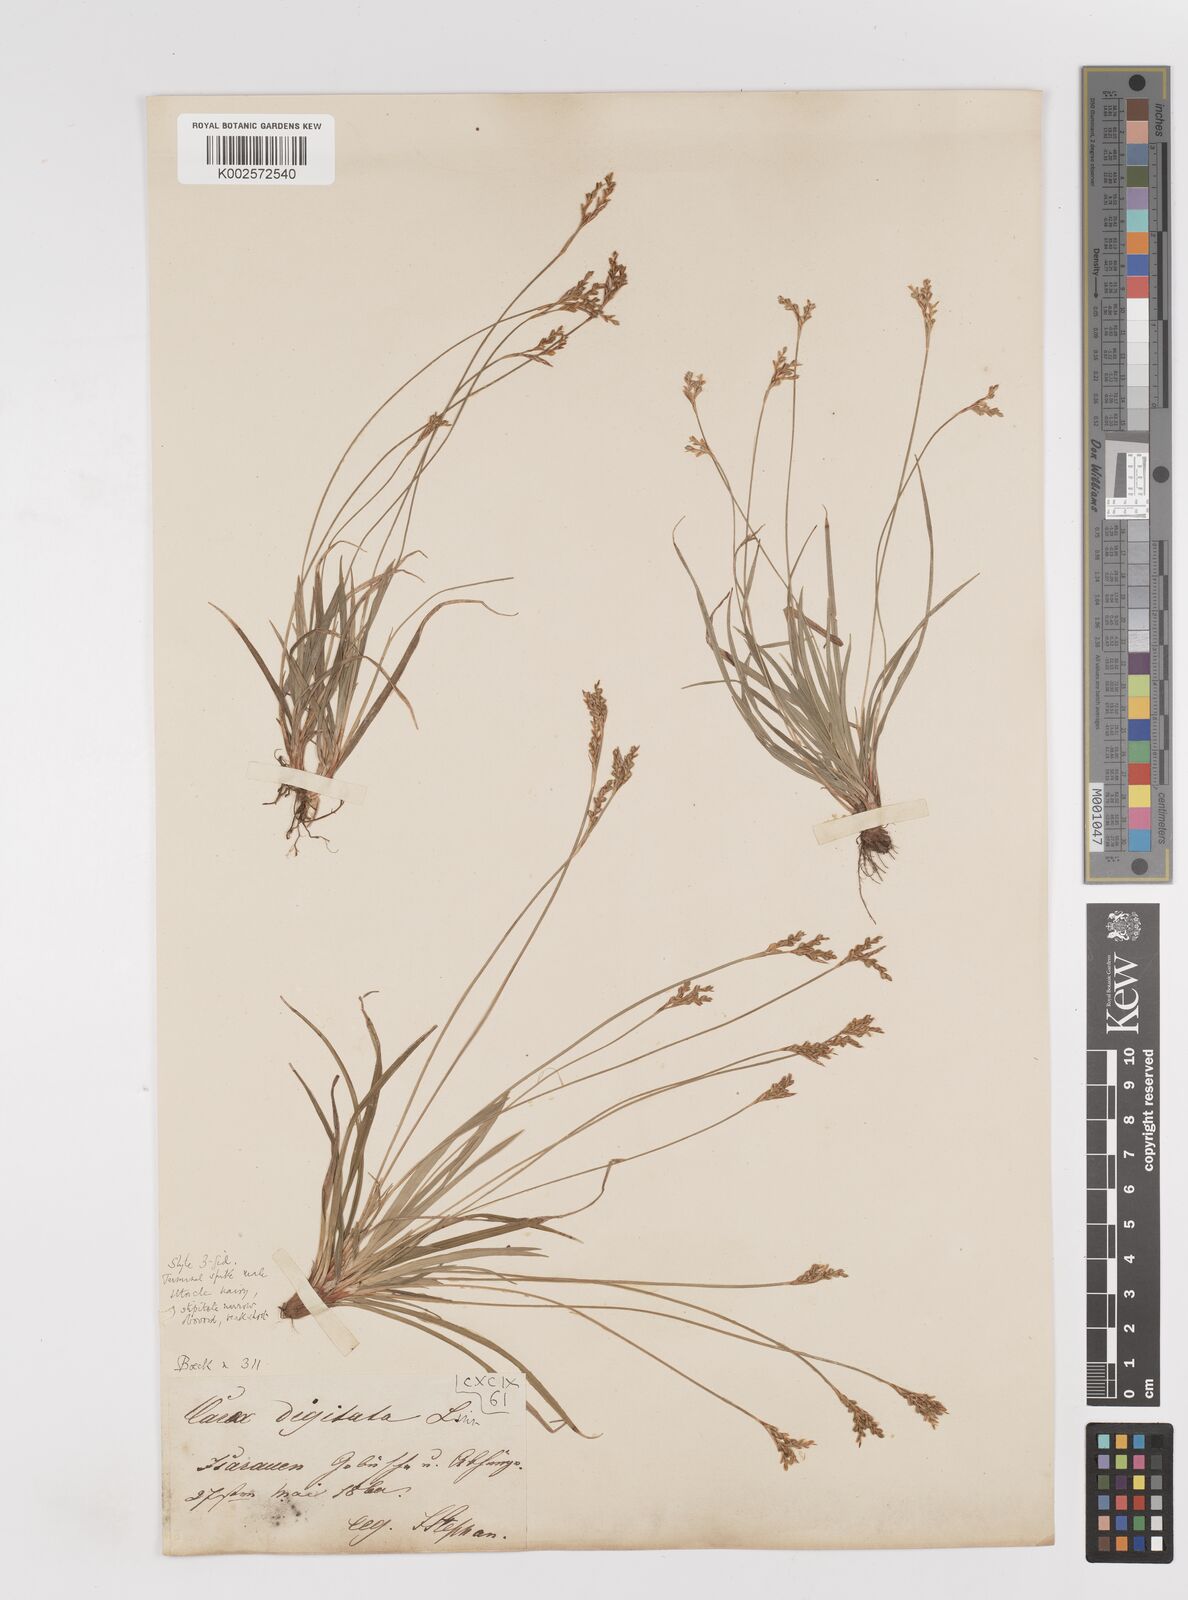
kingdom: Plantae
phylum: Tracheophyta
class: Liliopsida
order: Poales
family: Cyperaceae
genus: Carex
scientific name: Carex digitata
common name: Fingered sedge
